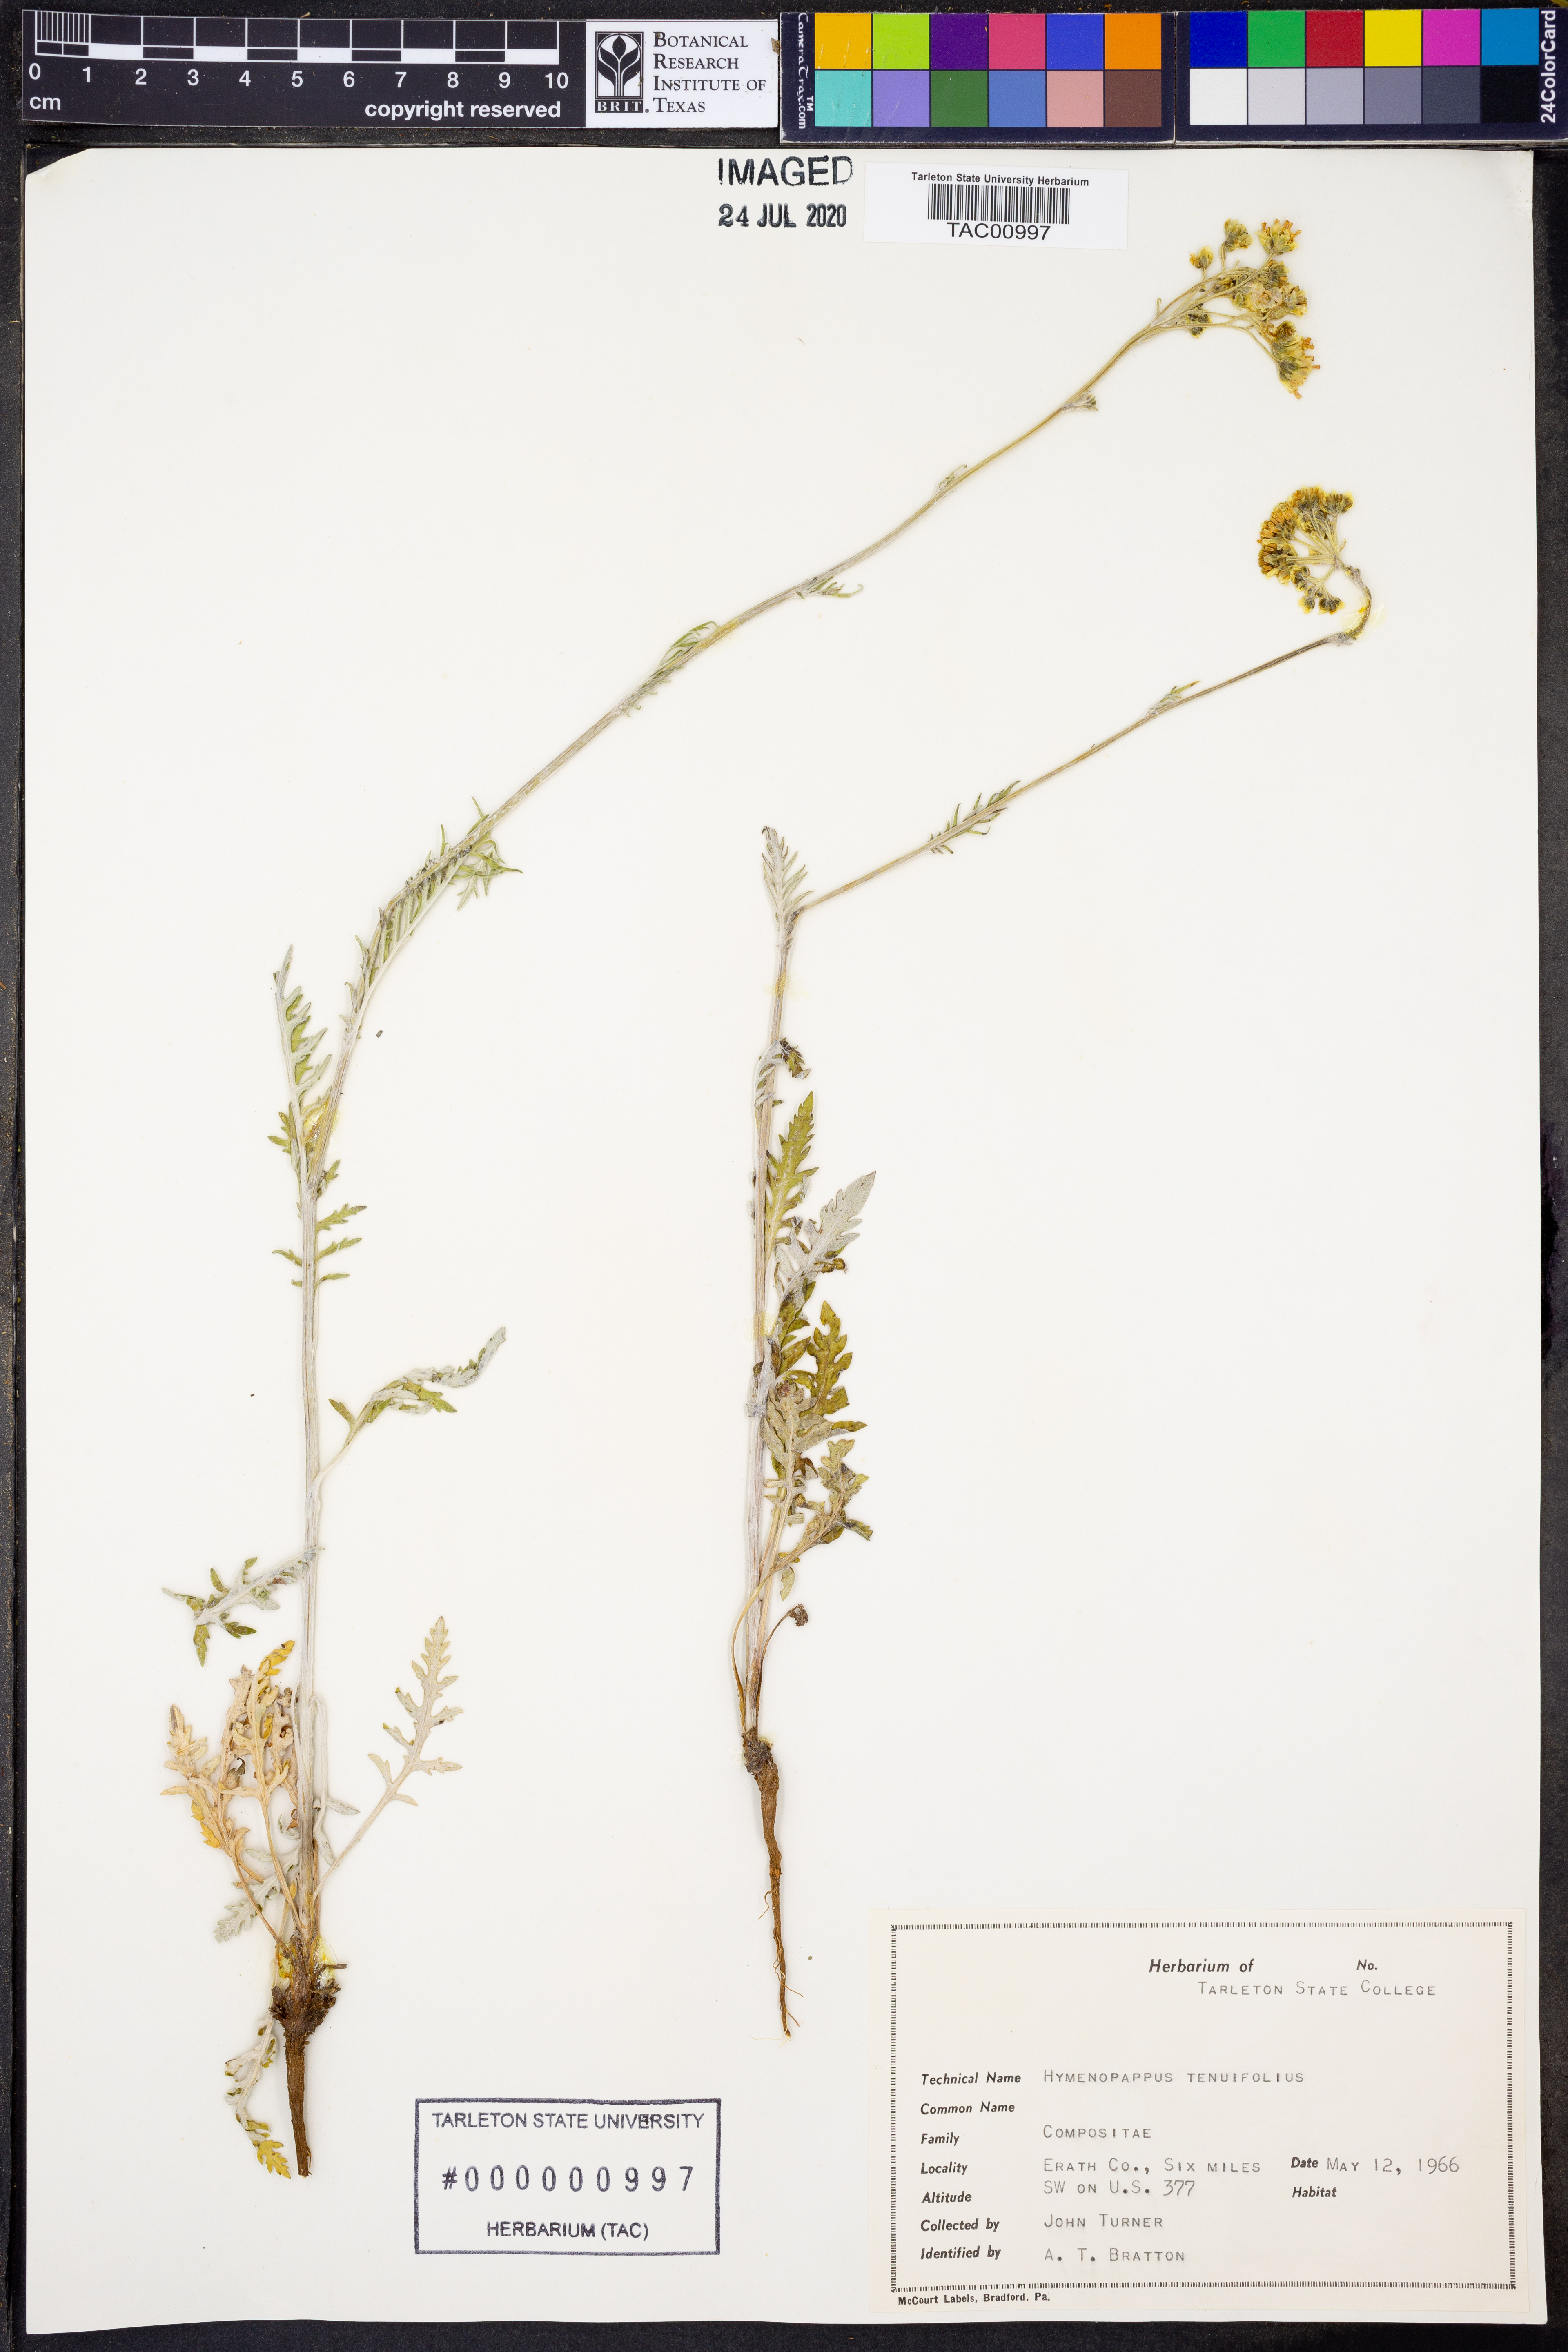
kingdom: Plantae
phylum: Tracheophyta
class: Magnoliopsida
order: Asterales
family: Asteraceae
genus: Hymenopappus
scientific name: Hymenopappus tenuifolius
